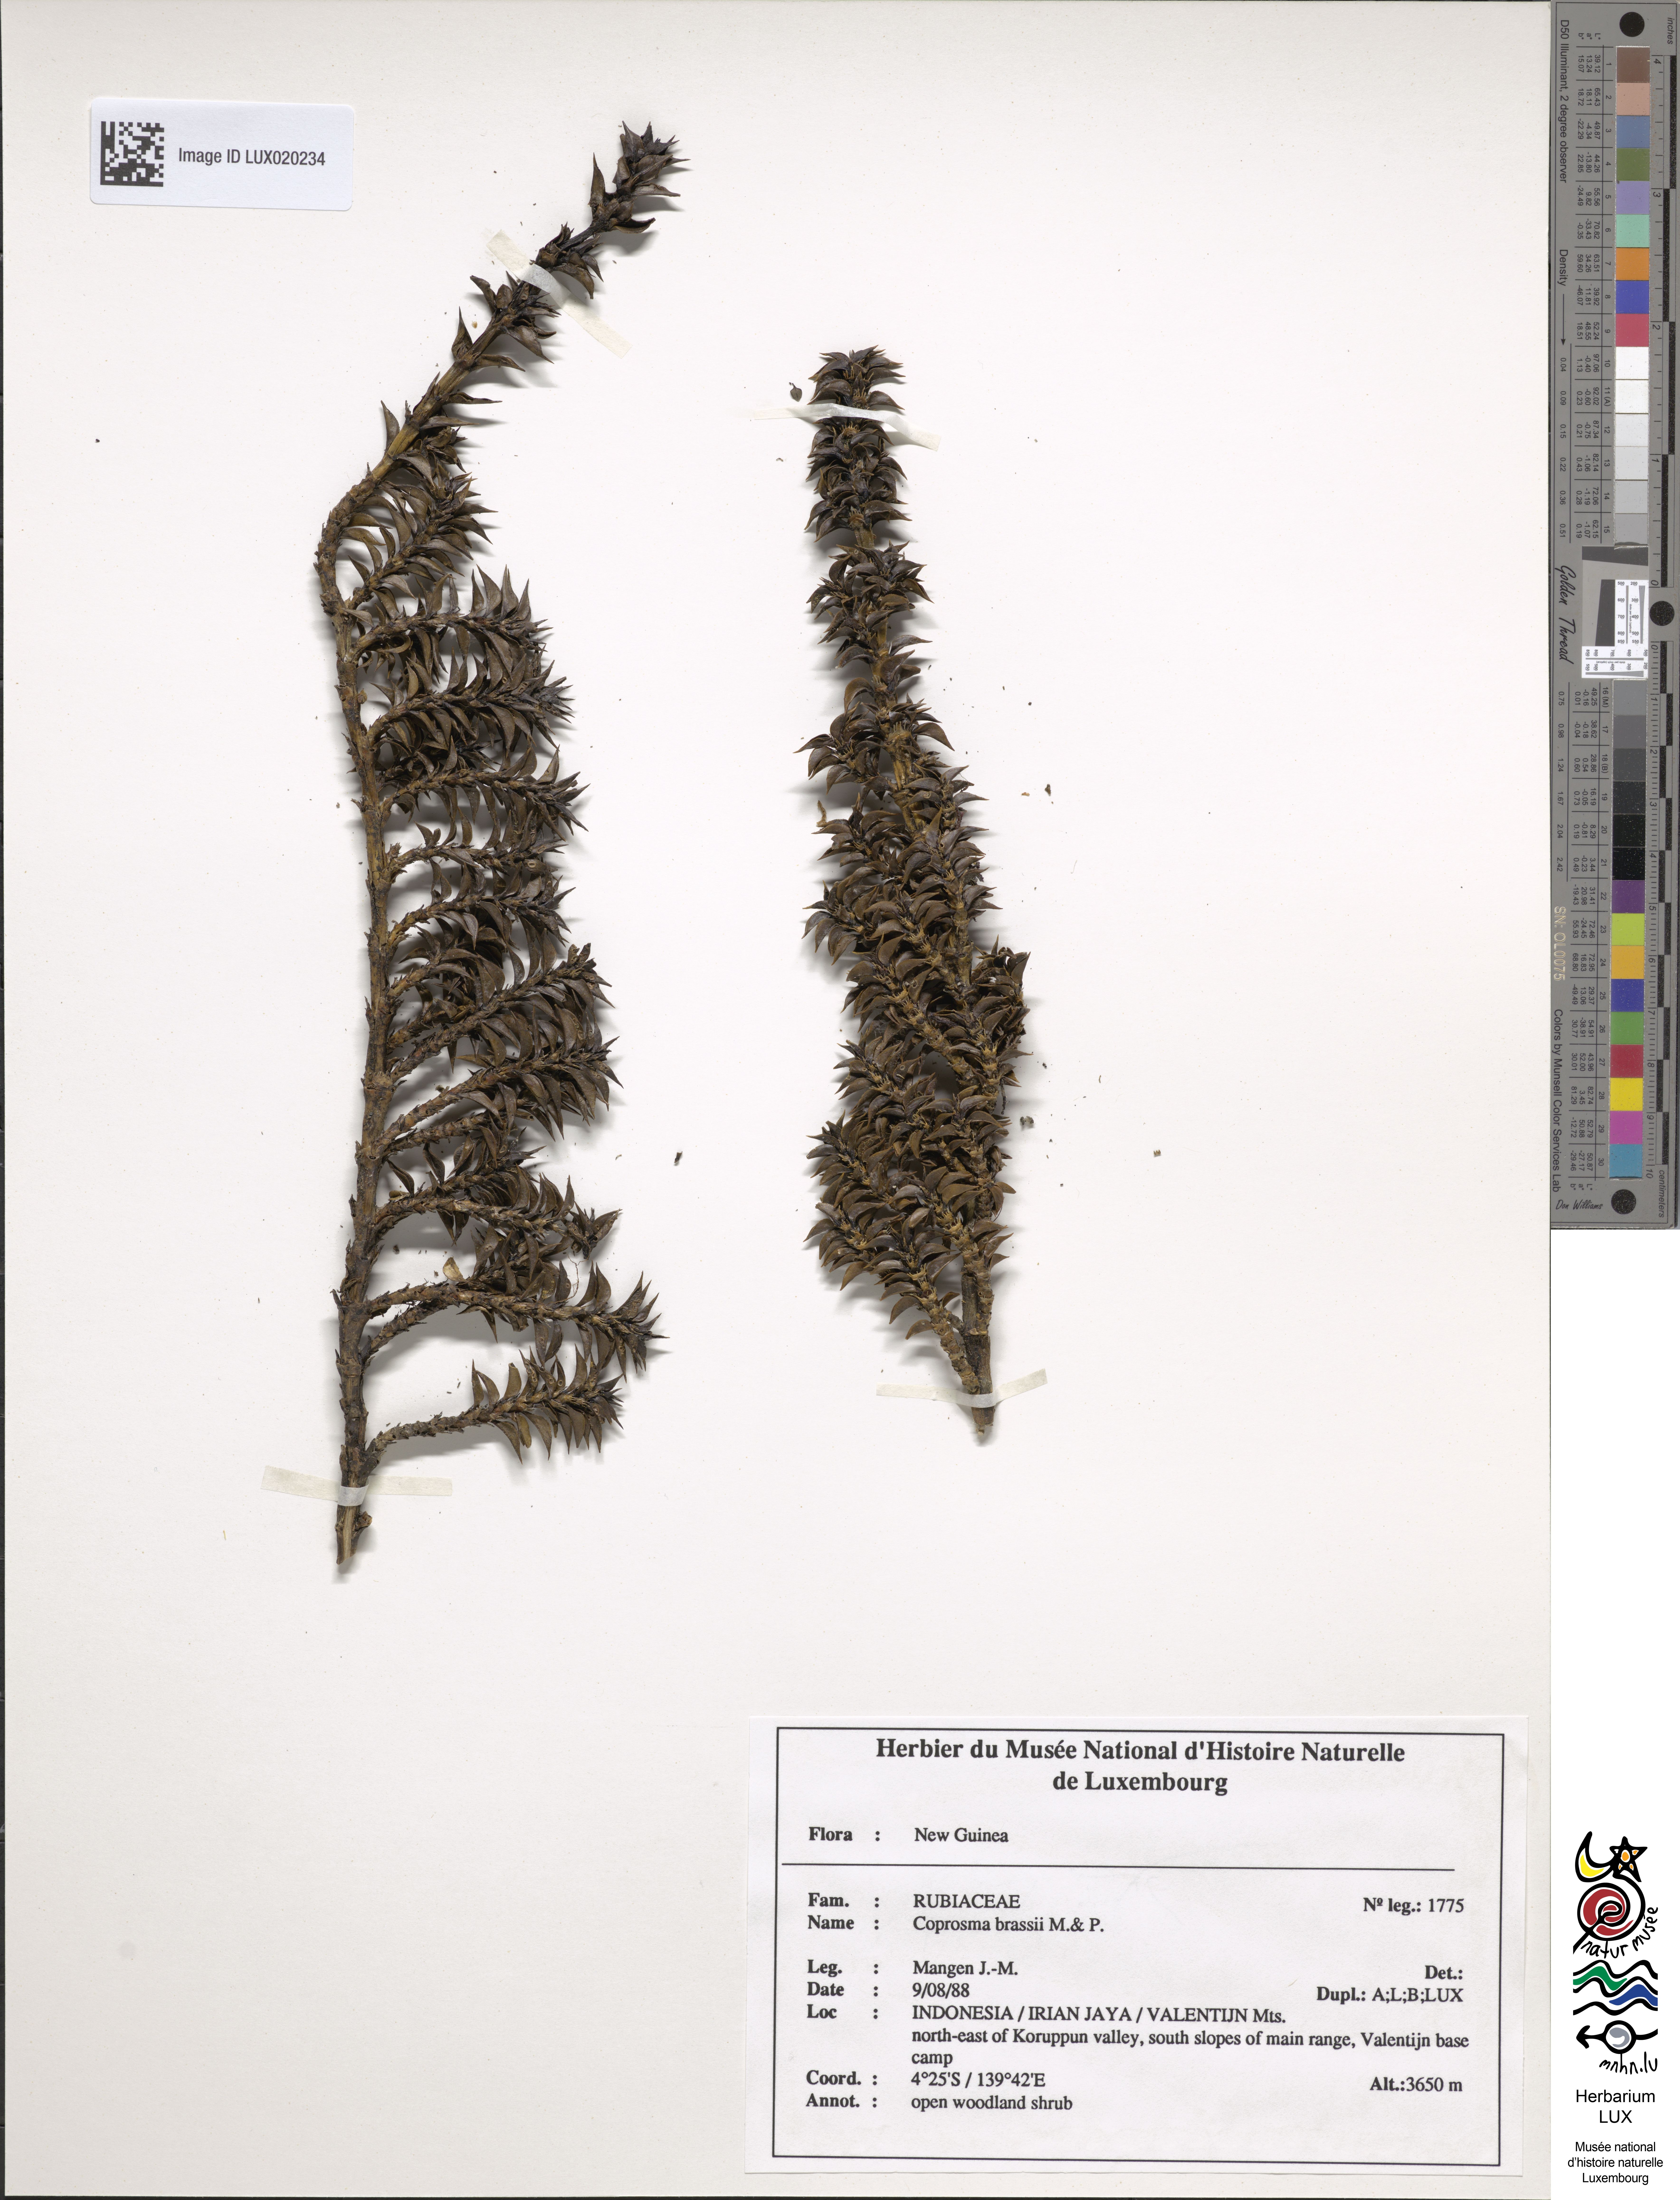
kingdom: Plantae
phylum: Tracheophyta
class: Magnoliopsida
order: Gentianales
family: Rubiaceae
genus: Coprosma
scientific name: Coprosma brassii
